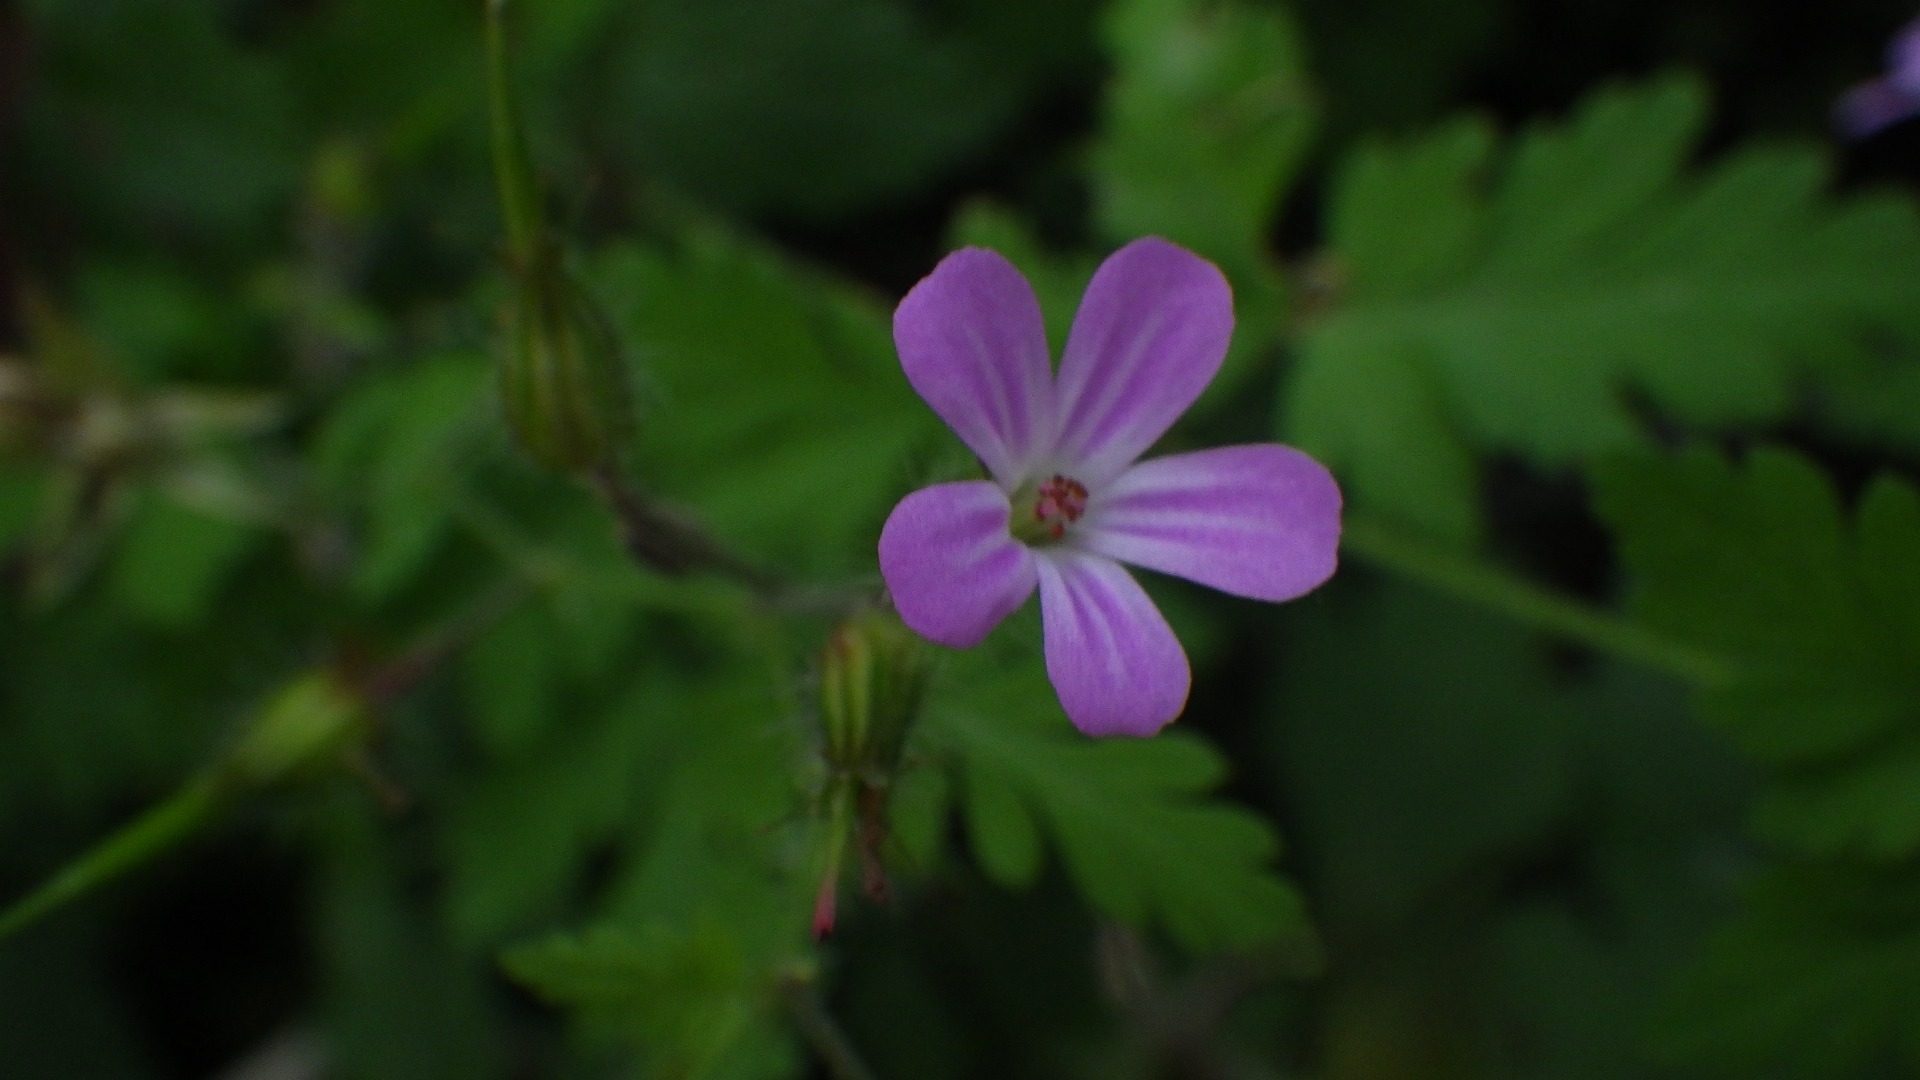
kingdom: Plantae
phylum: Tracheophyta
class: Magnoliopsida
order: Geraniales
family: Geraniaceae
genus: Geranium
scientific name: Geranium robertianum
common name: Stinkende storkenæb
